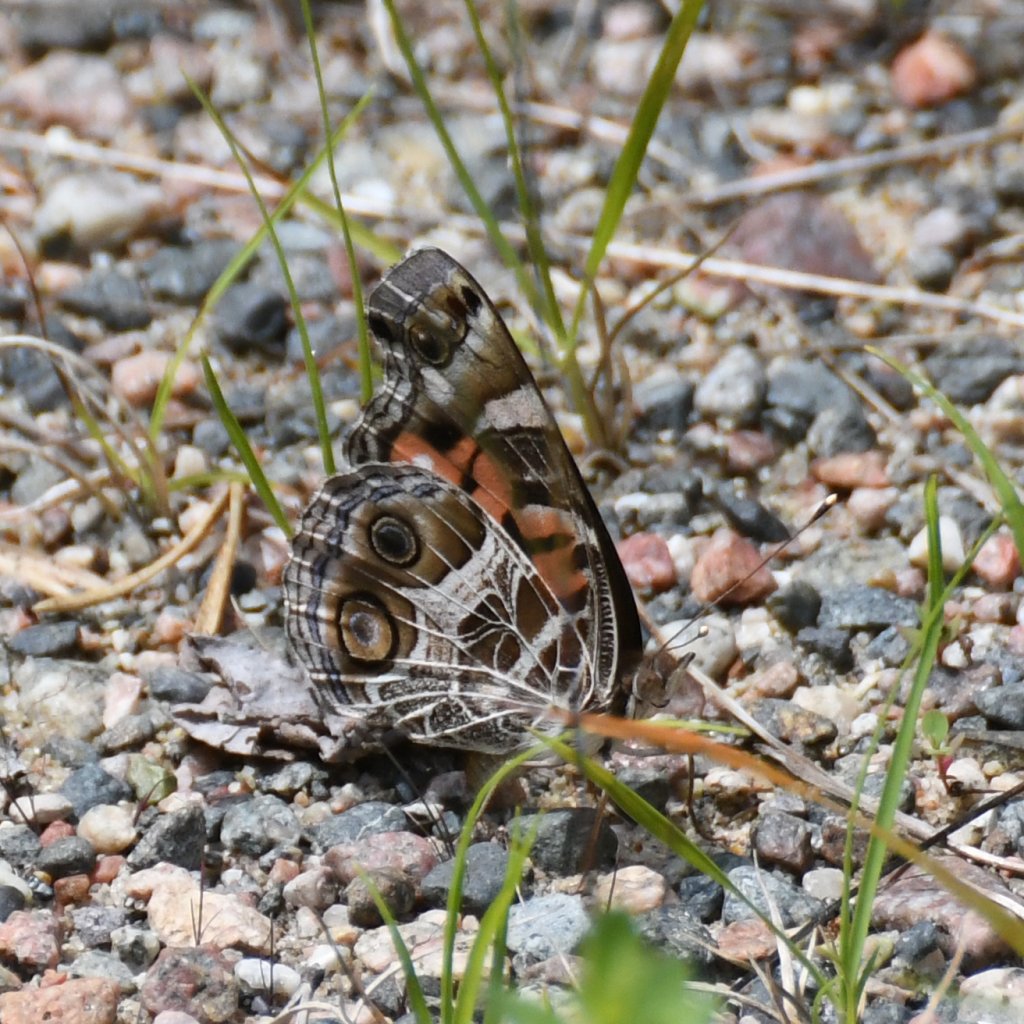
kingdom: Animalia
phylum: Arthropoda
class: Insecta
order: Lepidoptera
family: Nymphalidae
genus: Vanessa
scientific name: Vanessa virginiensis
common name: American Lady
